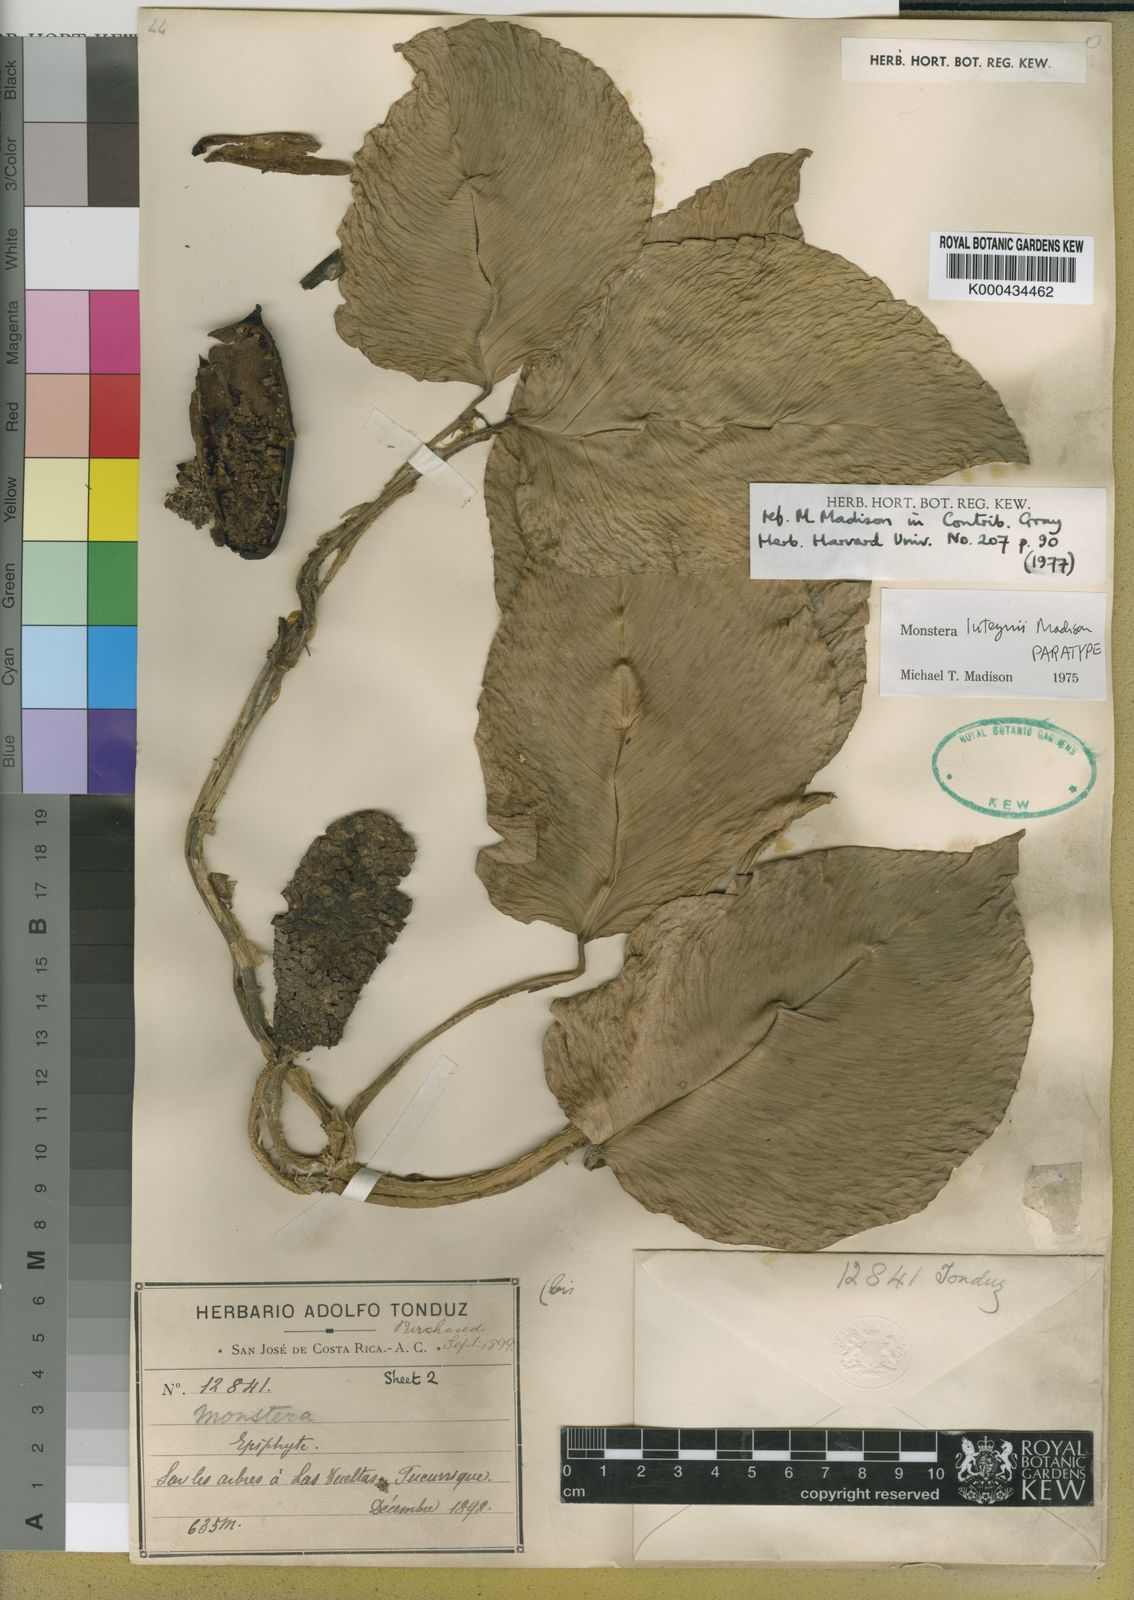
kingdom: Plantae
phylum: Tracheophyta
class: Liliopsida
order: Alismatales
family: Araceae
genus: Monstera
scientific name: Monstera luteynii
